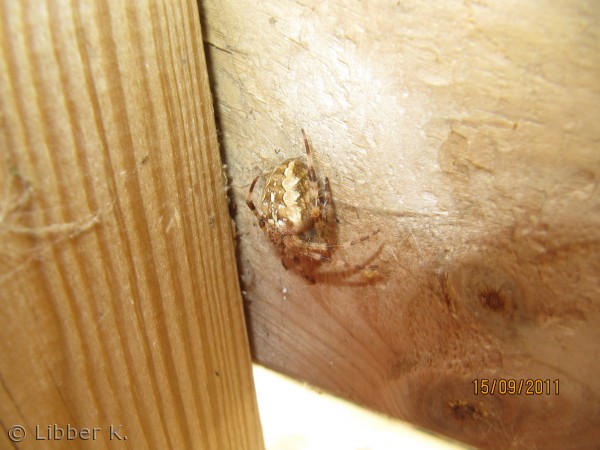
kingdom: Animalia
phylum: Arthropoda
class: Arachnida
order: Araneae
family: Araneidae
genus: Araneus
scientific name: Araneus diadematus
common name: Korsedderkop
